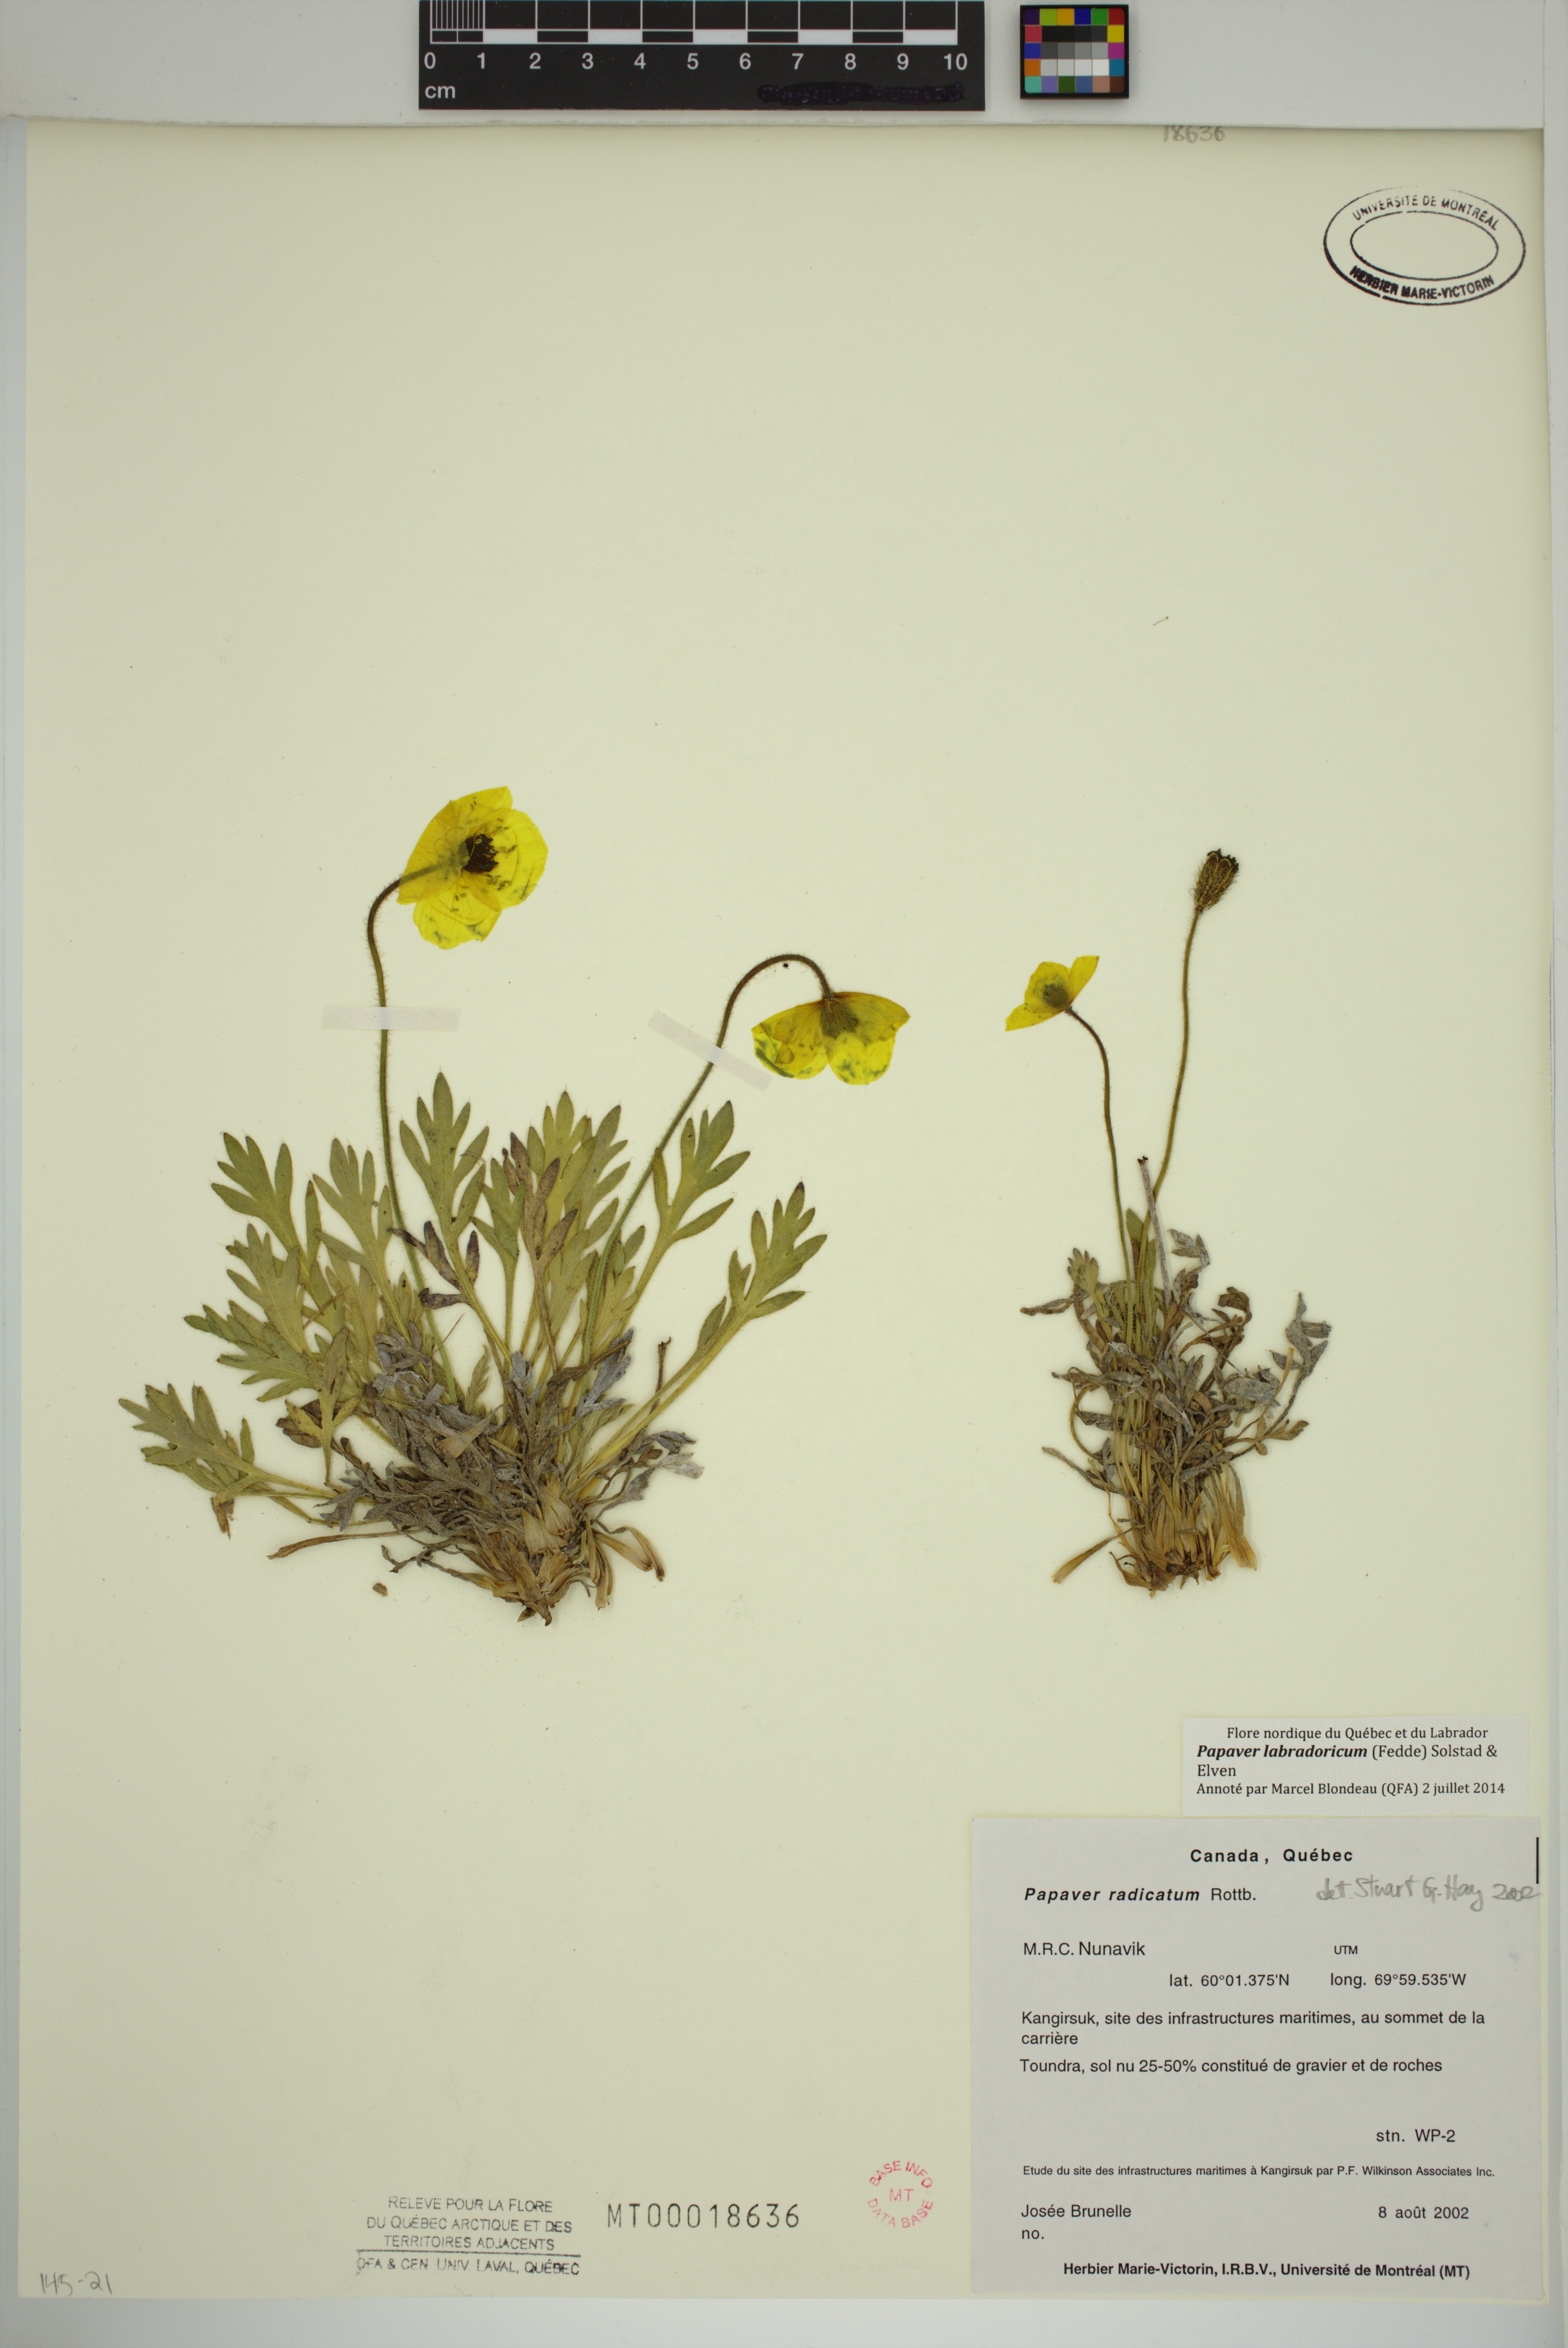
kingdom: Plantae
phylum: Tracheophyta
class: Magnoliopsida
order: Ranunculales
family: Papaveraceae
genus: Papaver
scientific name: Papaver radicatum
